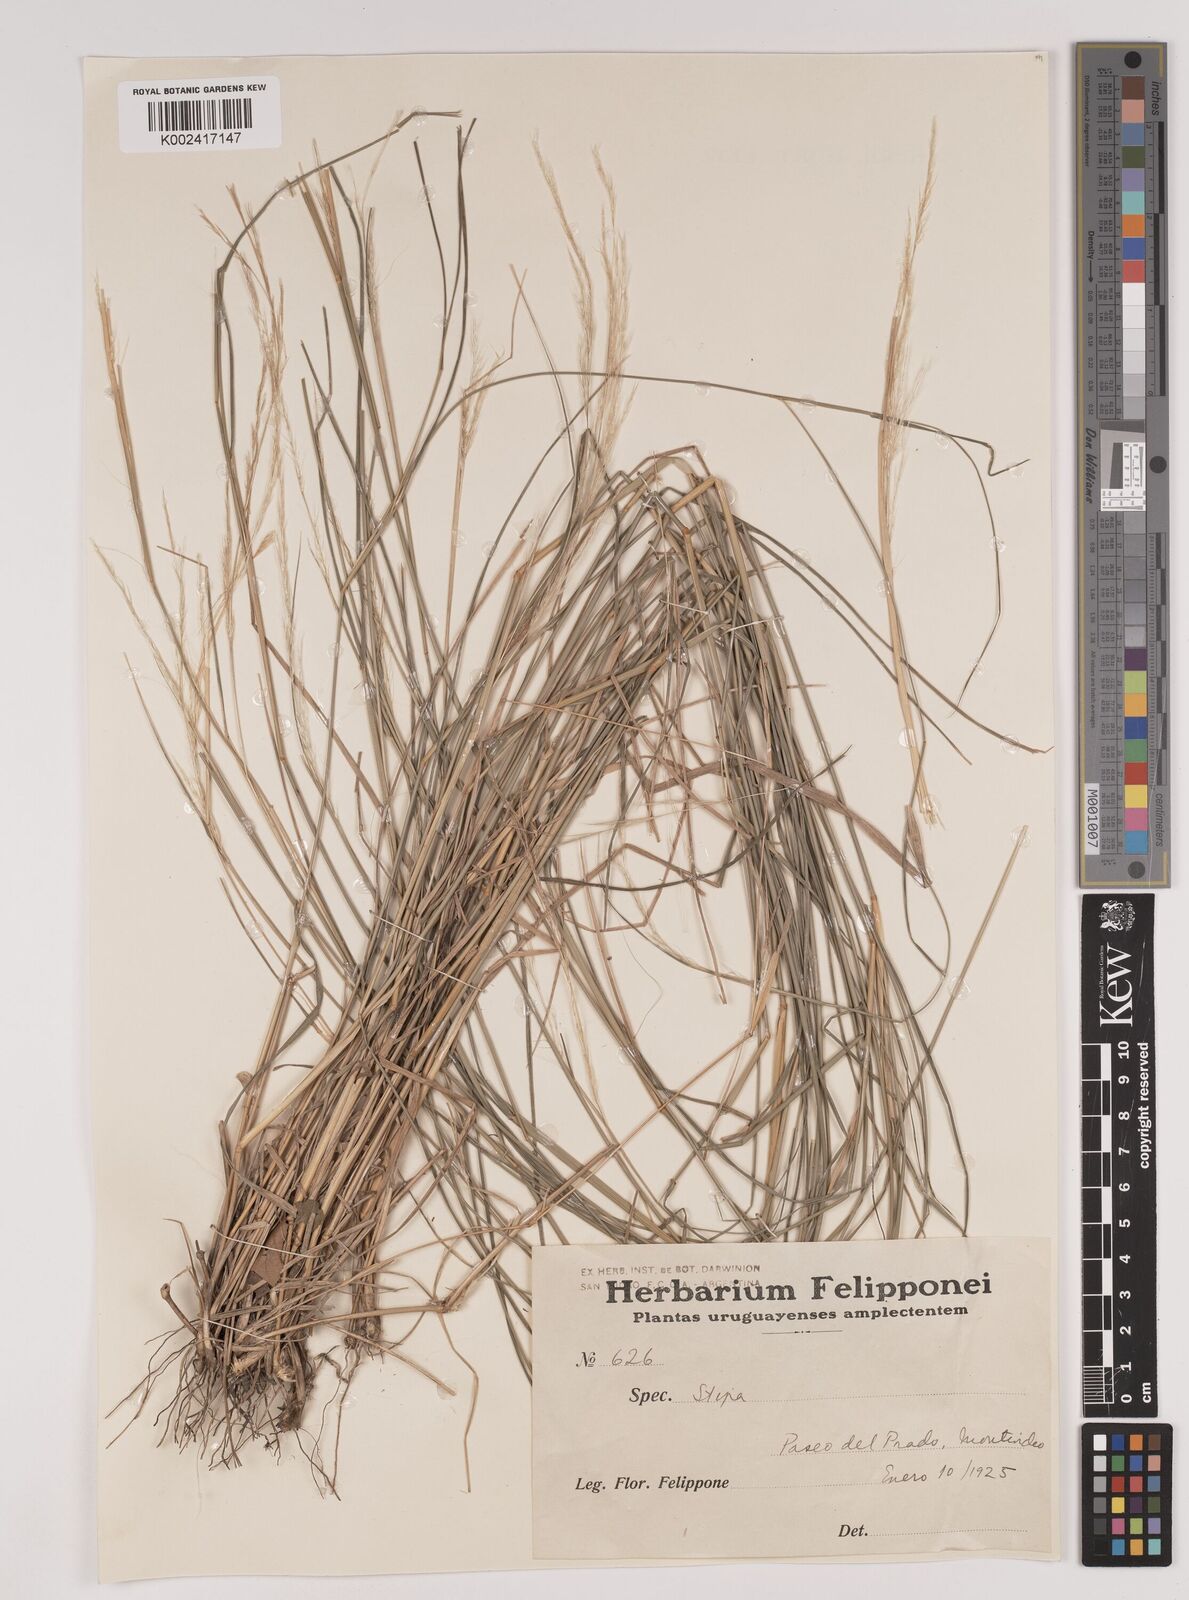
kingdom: Plantae
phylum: Tracheophyta
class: Liliopsida
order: Poales
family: Poaceae
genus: Stipa
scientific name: Stipa
